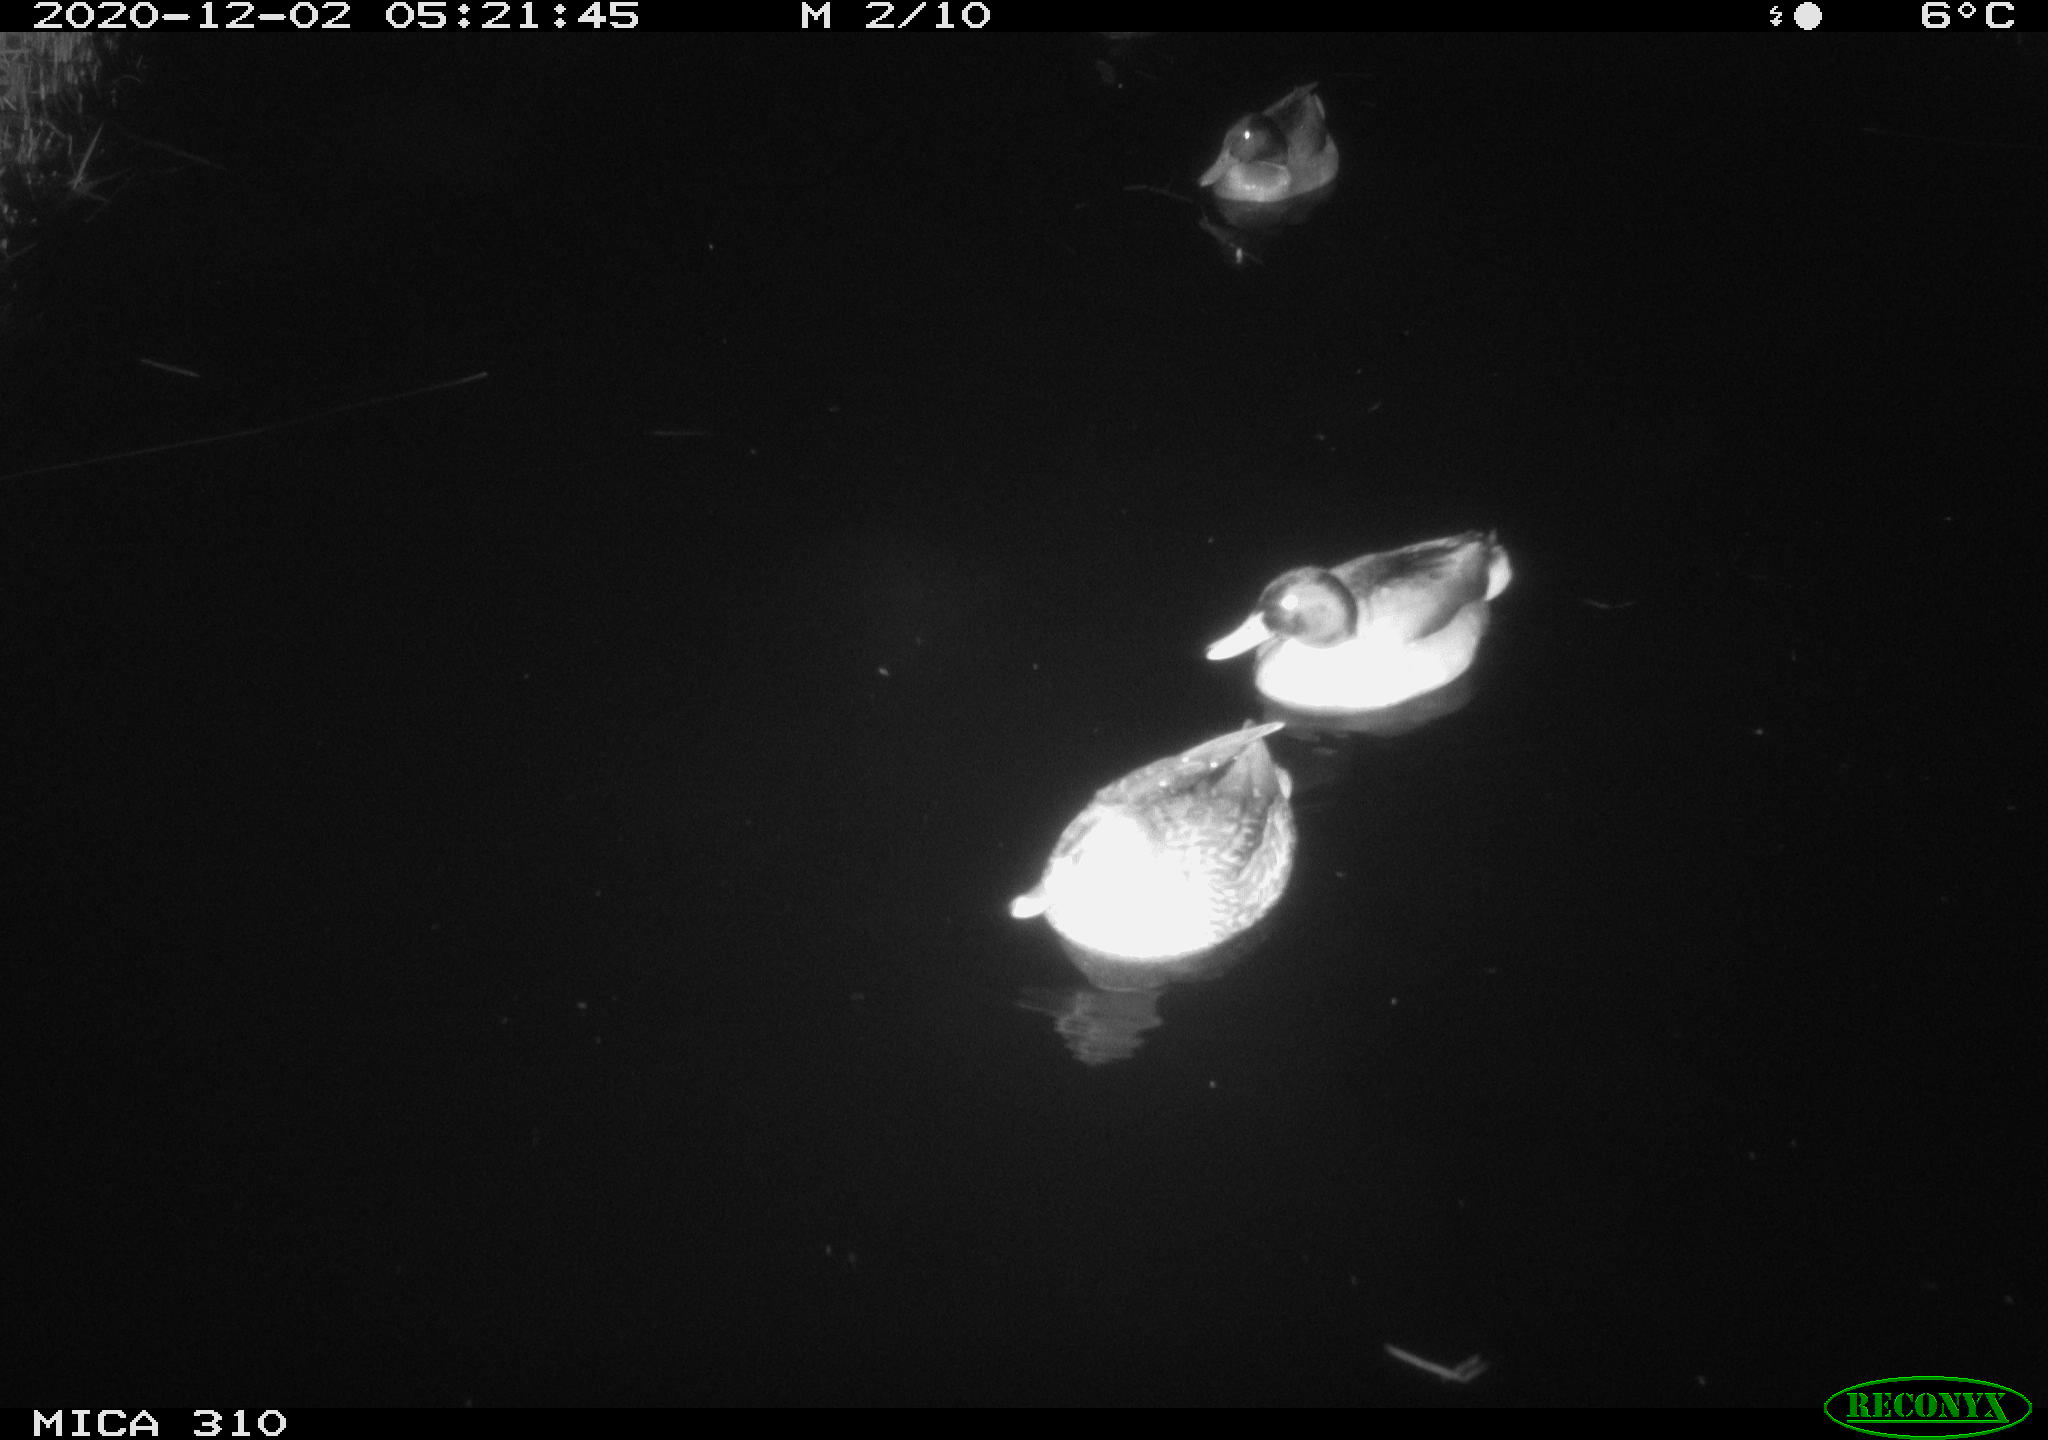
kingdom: Animalia
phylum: Chordata
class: Aves
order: Anseriformes
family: Anatidae
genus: Anas
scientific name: Anas platyrhynchos
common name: Mallard
